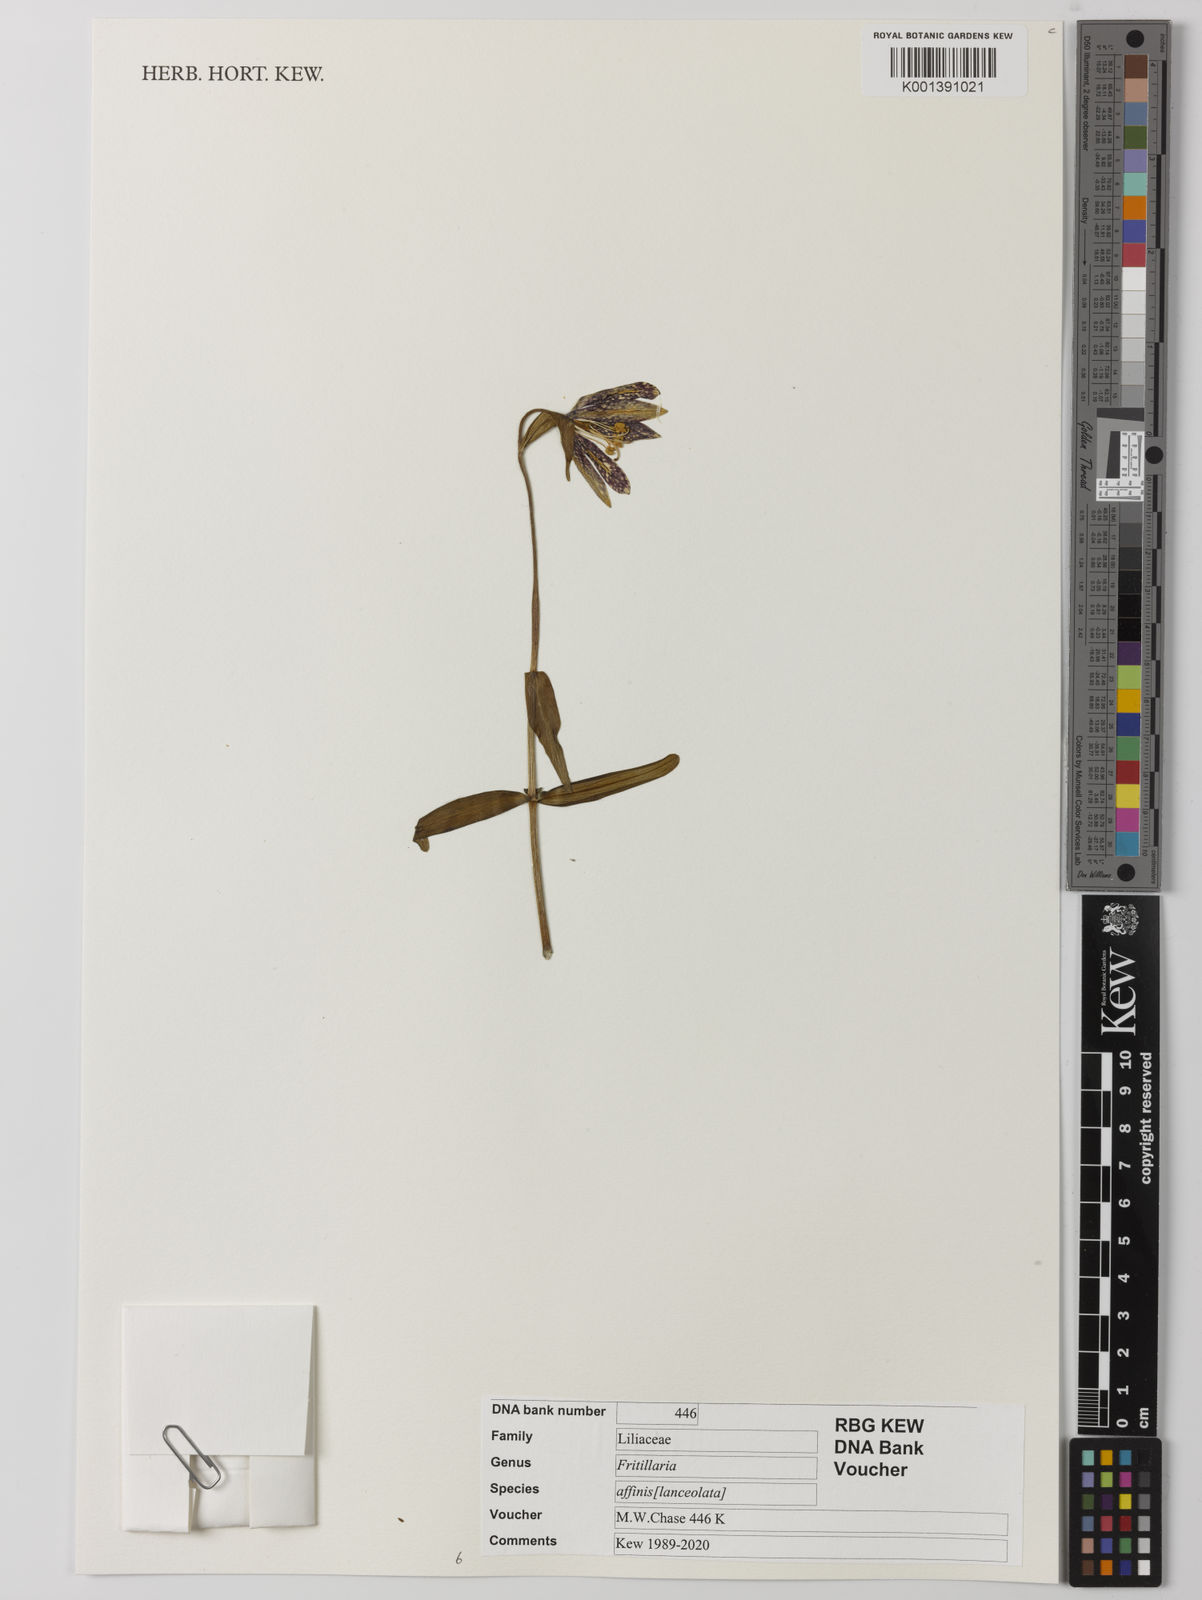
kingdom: Plantae
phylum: Tracheophyta
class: Liliopsida
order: Liliales
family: Liliaceae
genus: Fritillaria
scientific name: Fritillaria affinis
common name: Ojai fritillary
